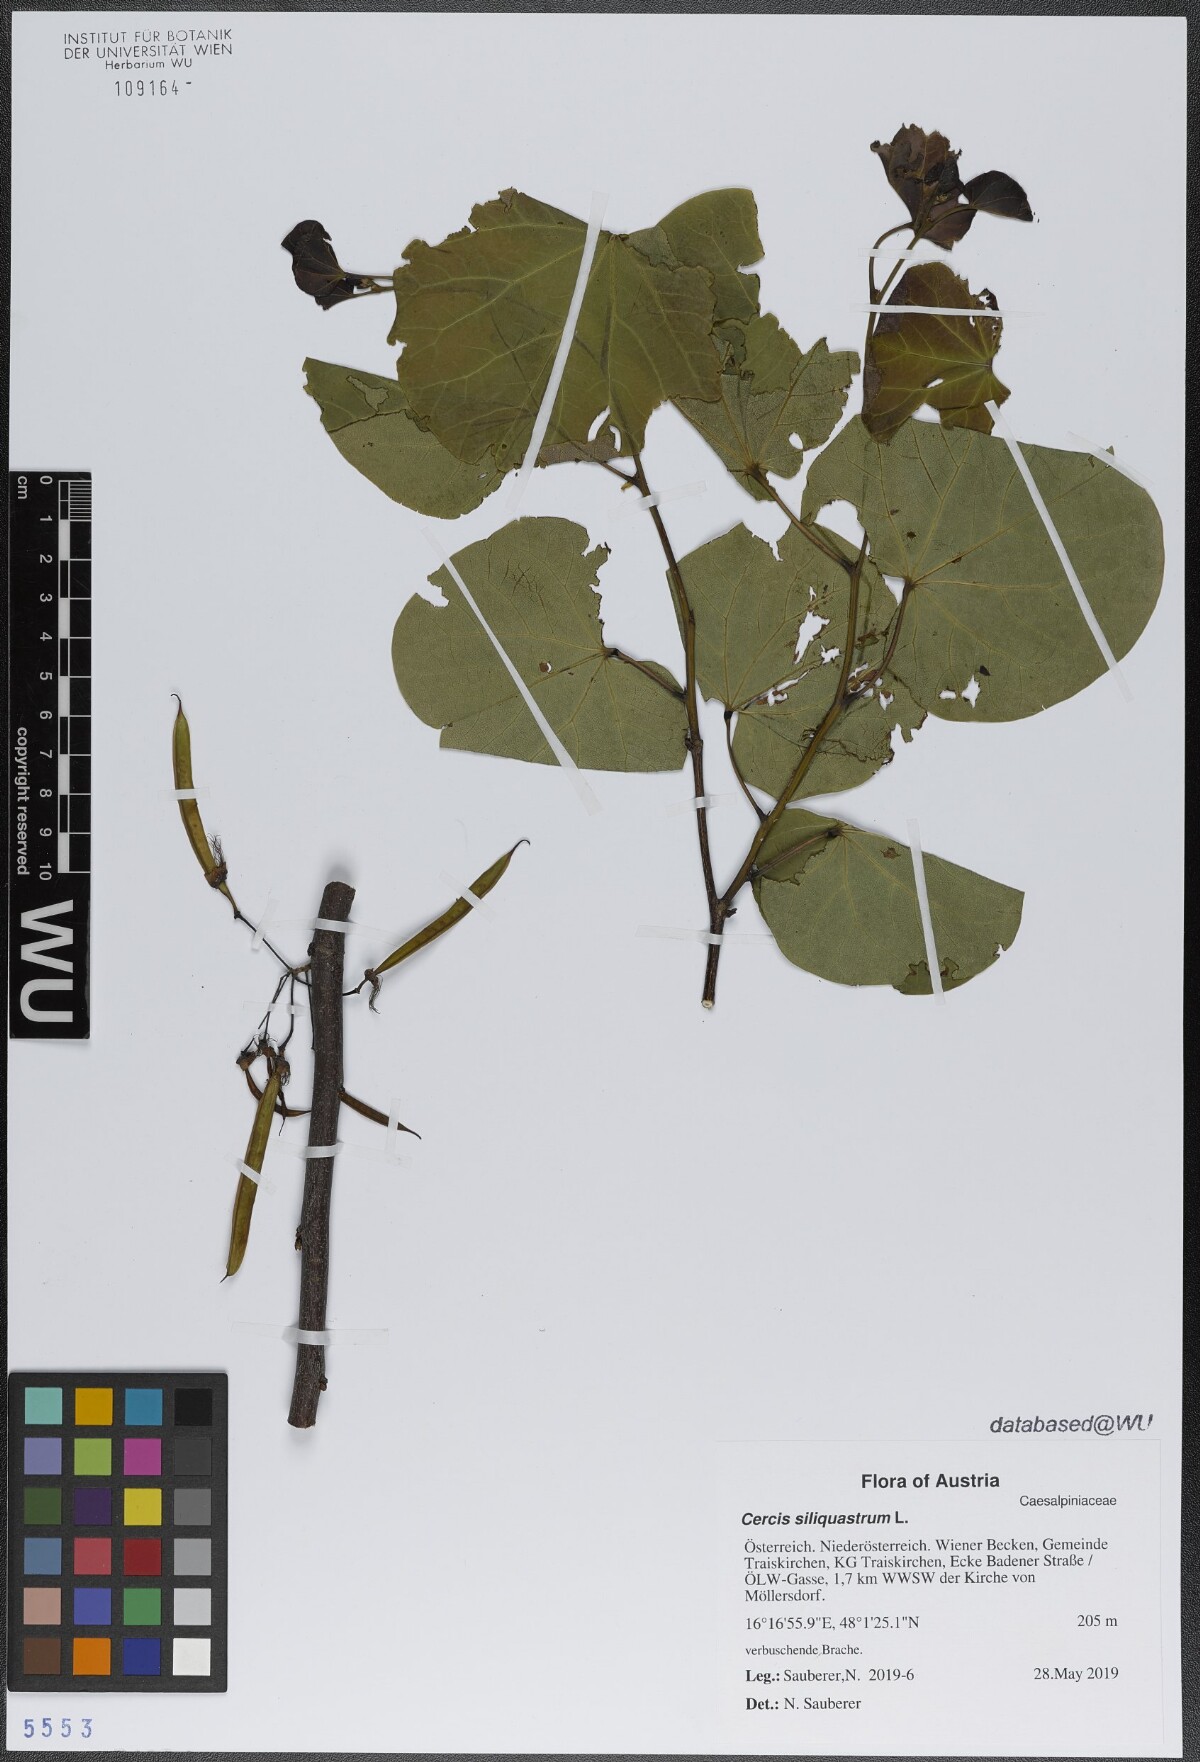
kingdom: Plantae
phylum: Tracheophyta
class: Magnoliopsida
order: Fabales
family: Fabaceae
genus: Cercis
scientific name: Cercis siliquastrum
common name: Judas tree
